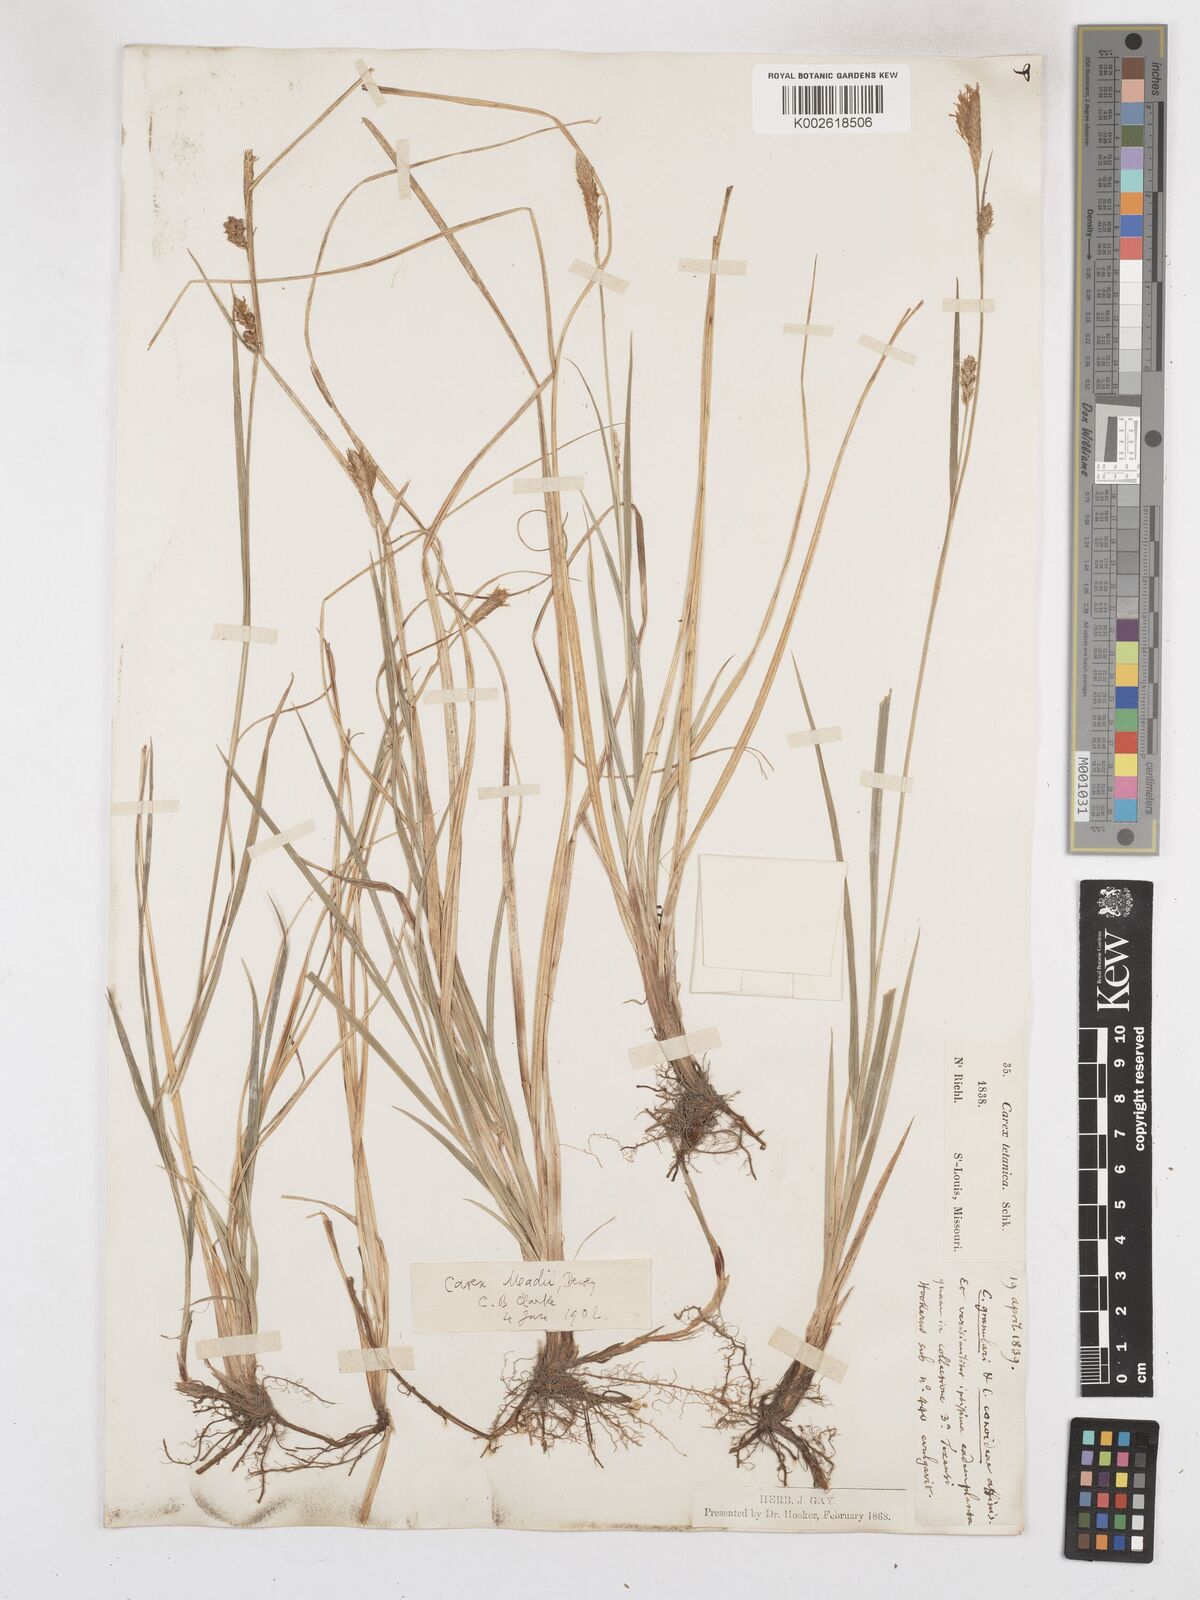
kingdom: Plantae
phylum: Tracheophyta
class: Liliopsida
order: Poales
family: Cyperaceae
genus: Carex
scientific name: Carex meadii
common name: Mead's sedge
